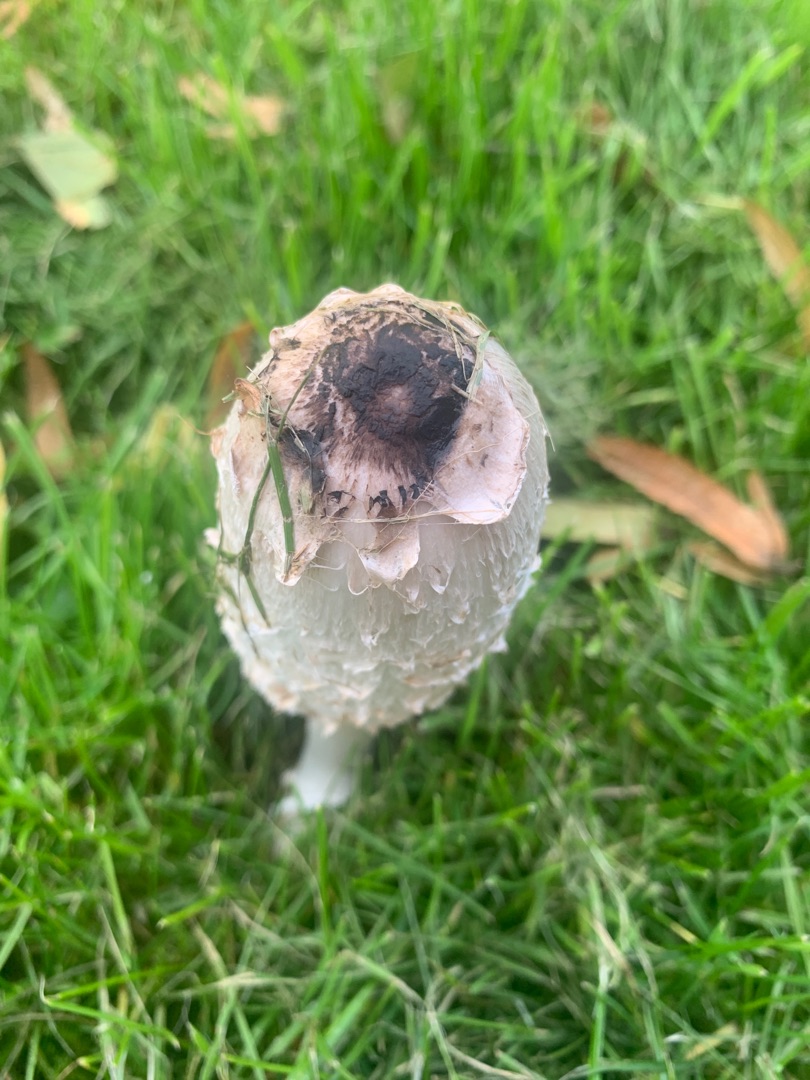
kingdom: Fungi
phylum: Basidiomycota
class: Agaricomycetes
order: Agaricales
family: Agaricaceae
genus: Coprinus
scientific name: Coprinus comatus
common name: Stor parykhat
